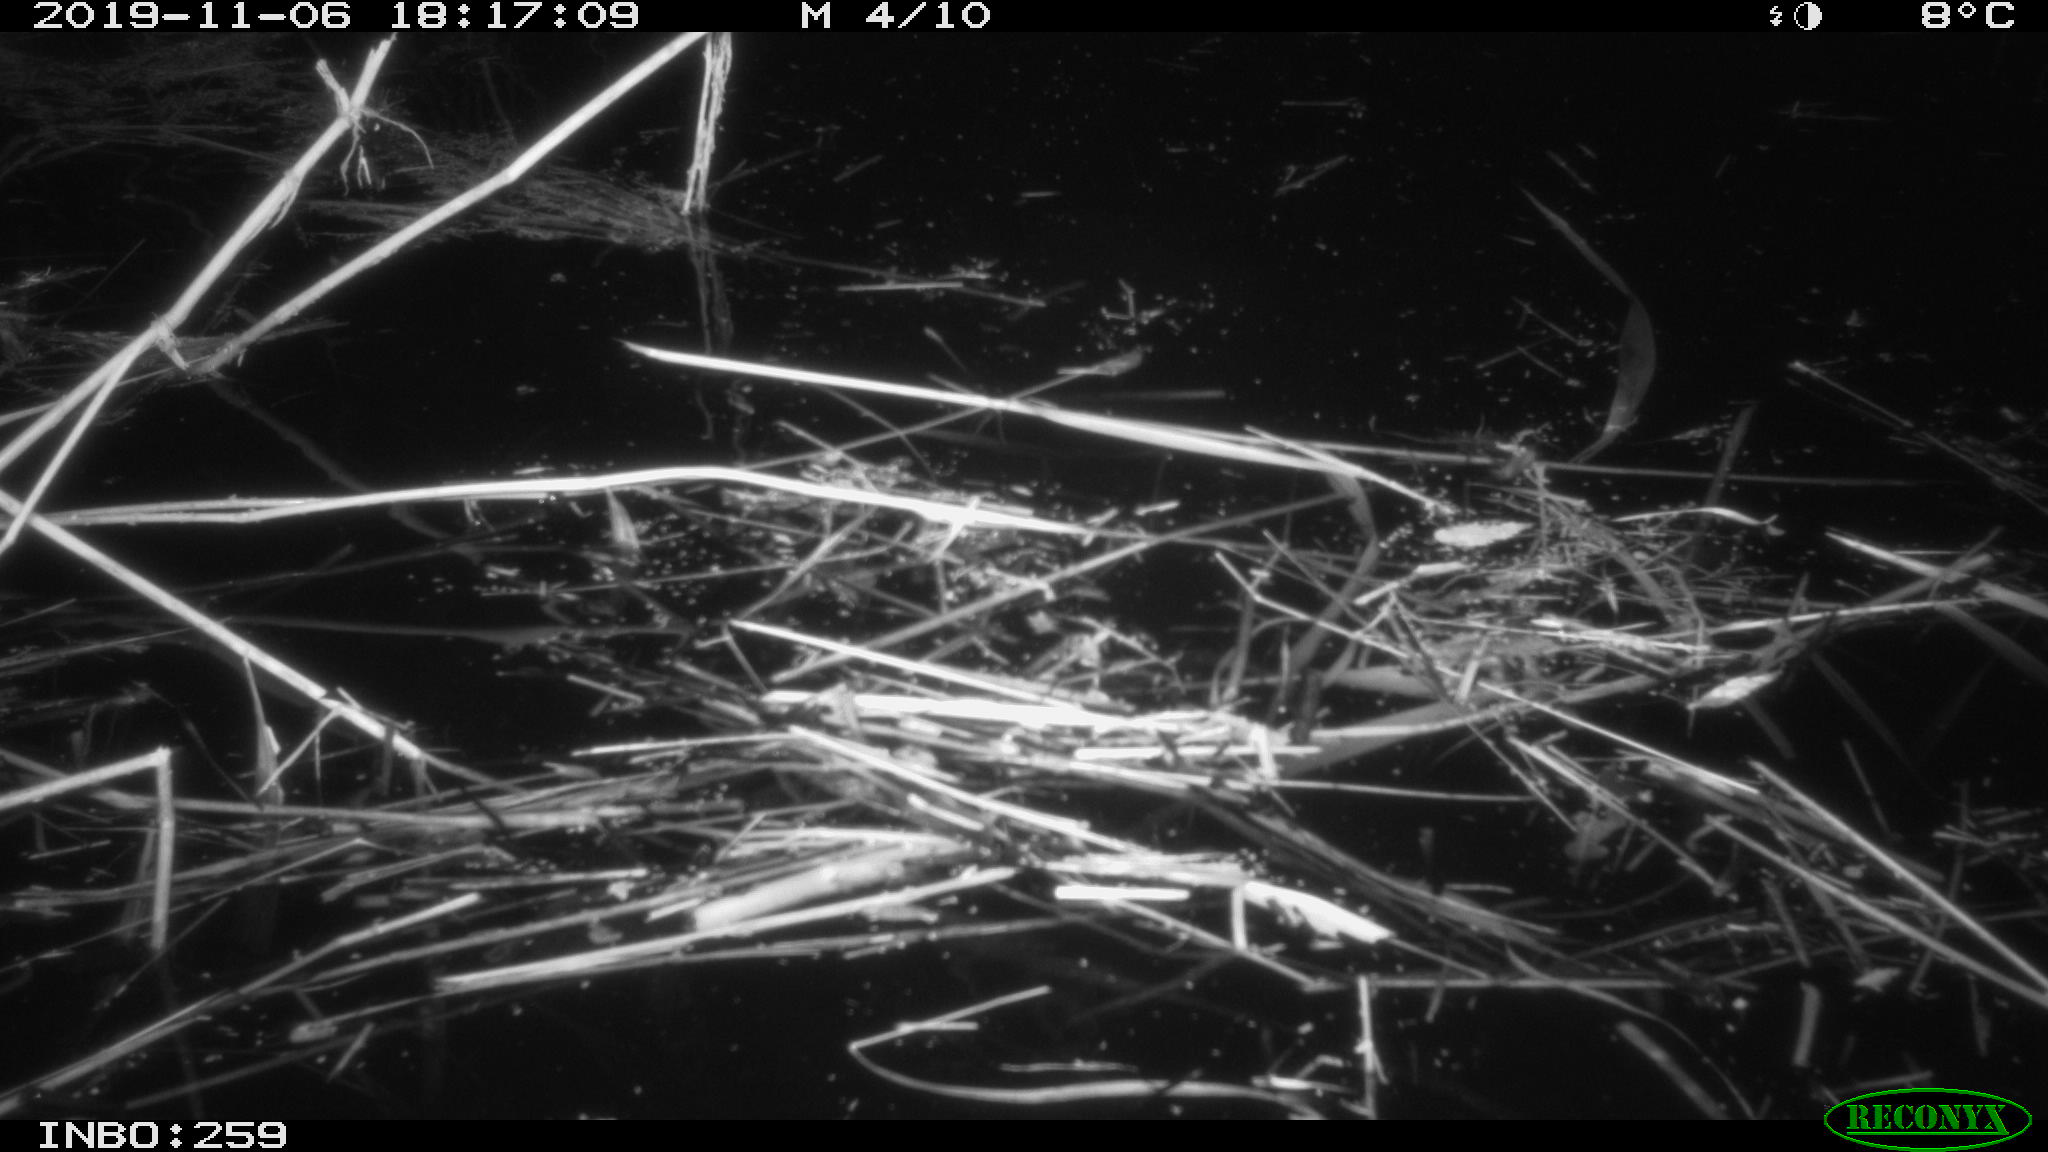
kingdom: Animalia
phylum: Chordata
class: Mammalia
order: Rodentia
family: Cricetidae
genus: Ondatra
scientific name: Ondatra zibethicus
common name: Muskrat
